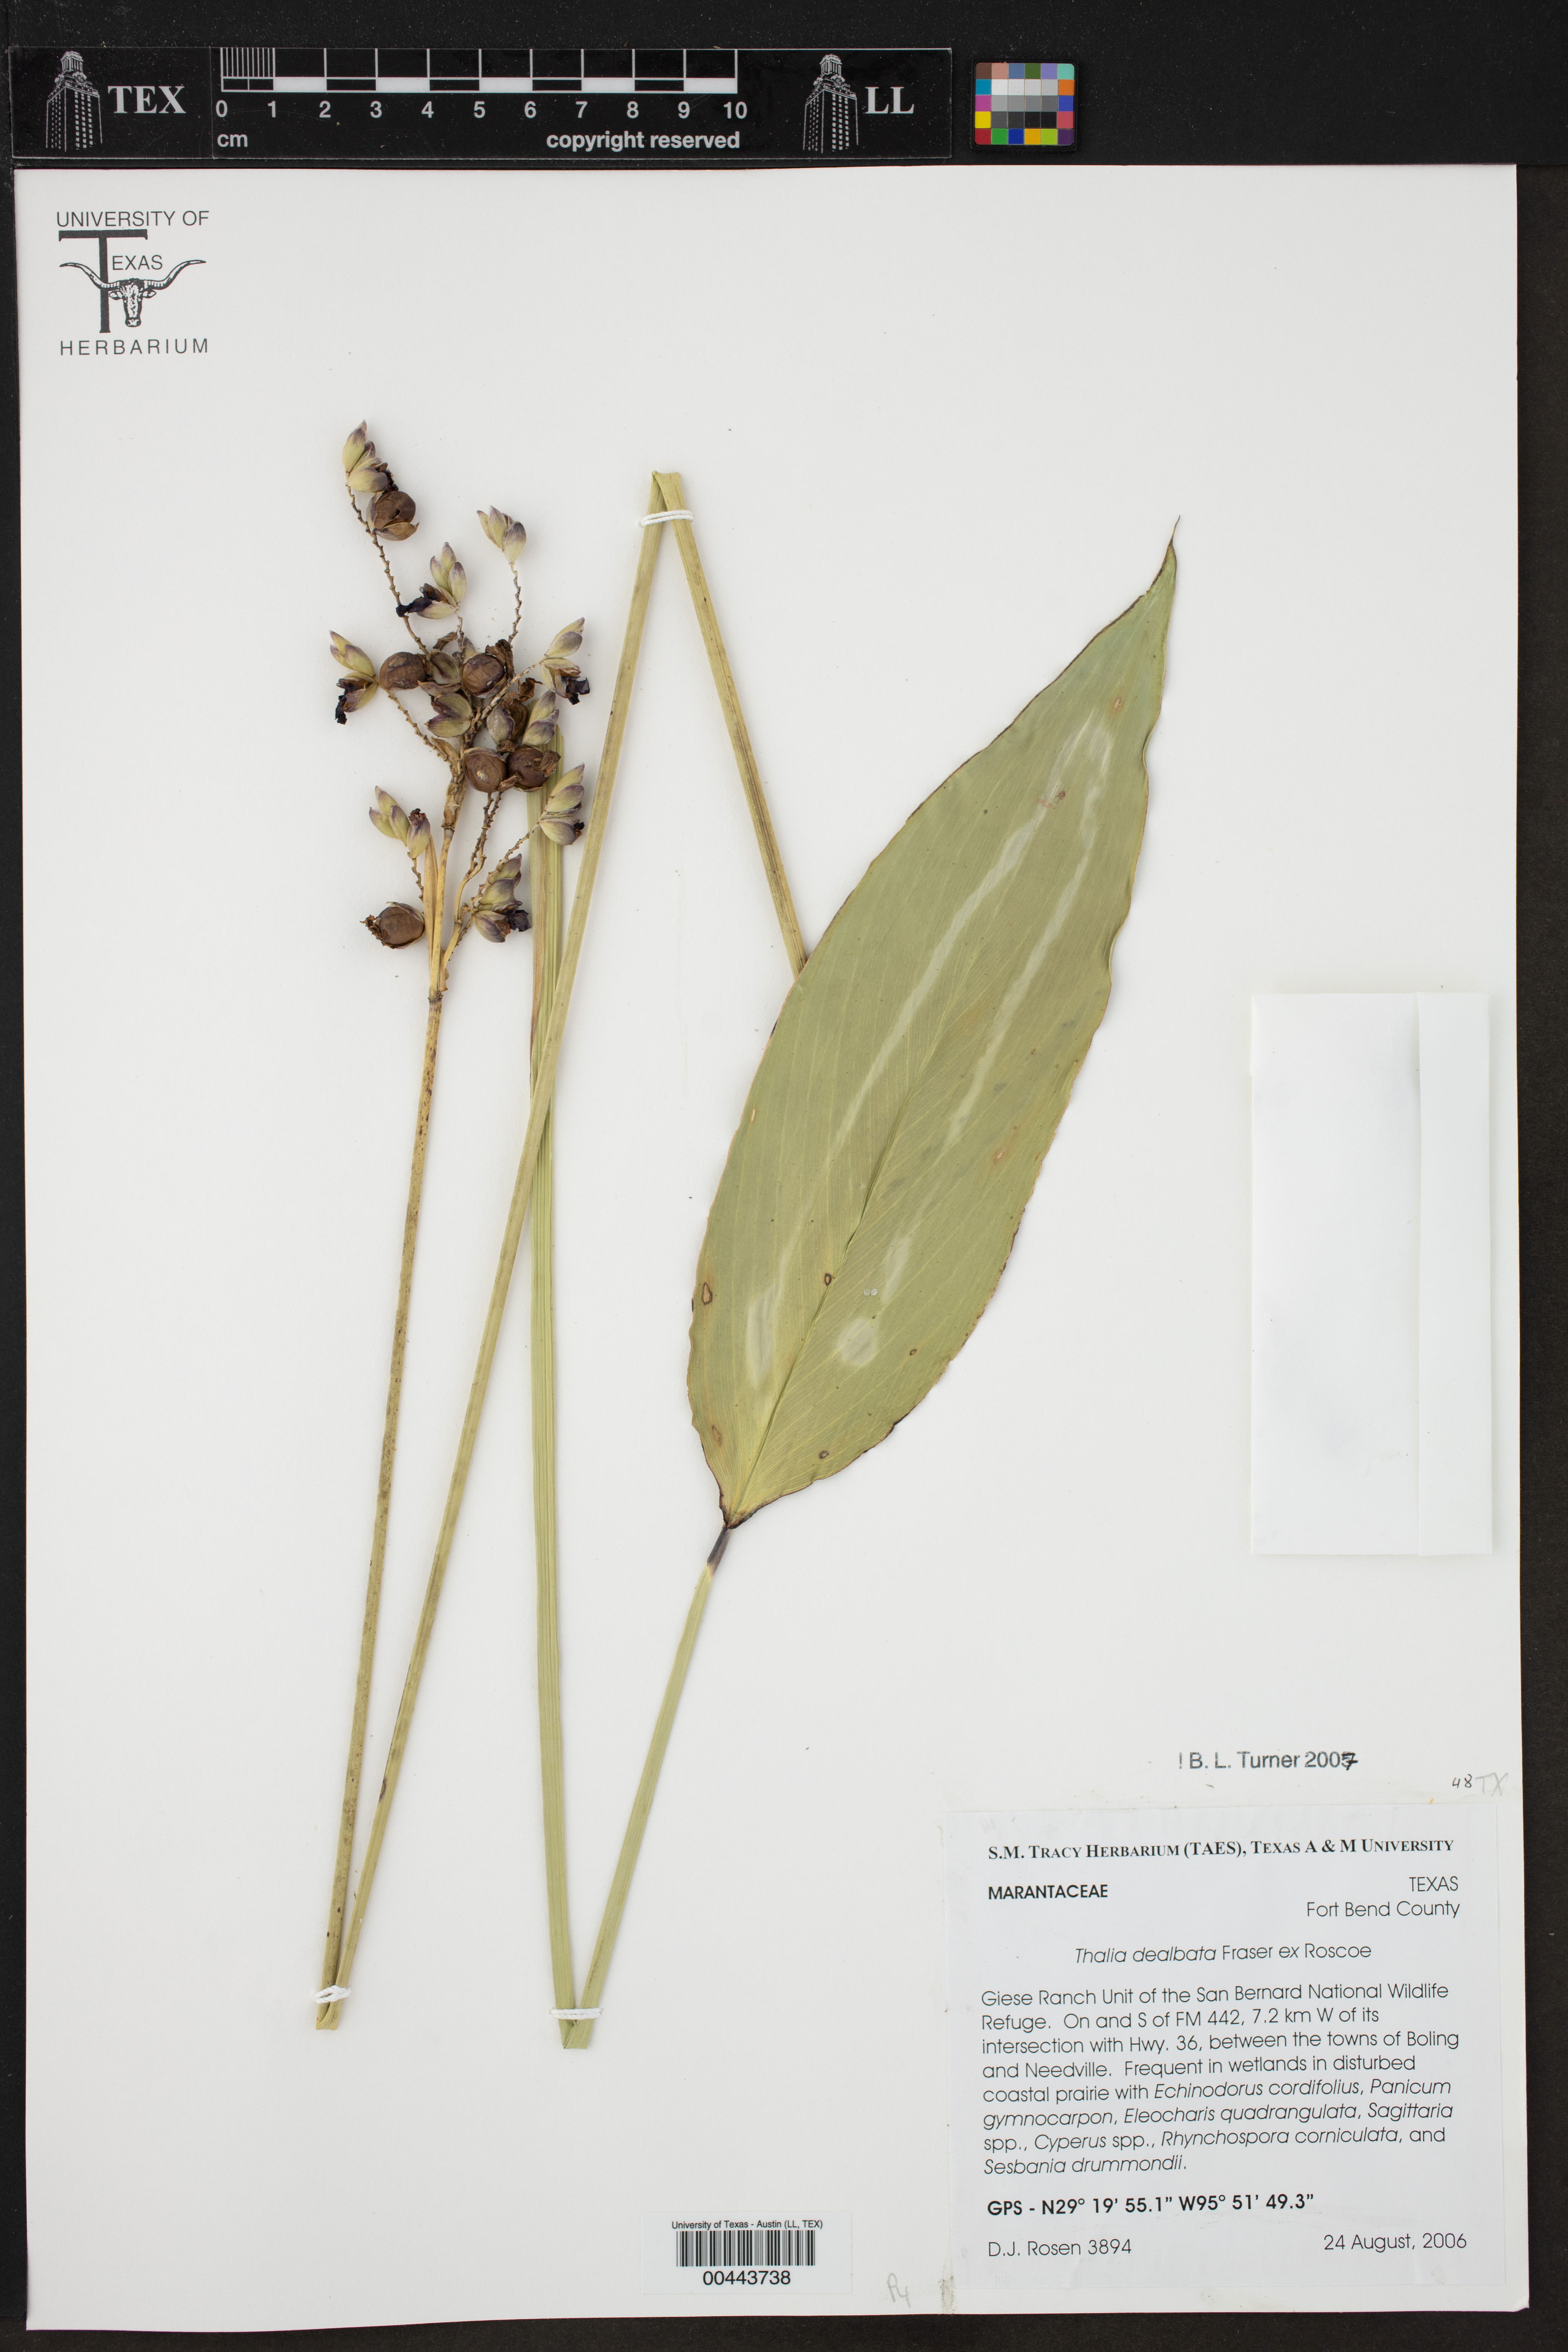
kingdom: Plantae
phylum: Tracheophyta
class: Liliopsida
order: Zingiberales
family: Marantaceae
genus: Thalia
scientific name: Thalia dealbata
